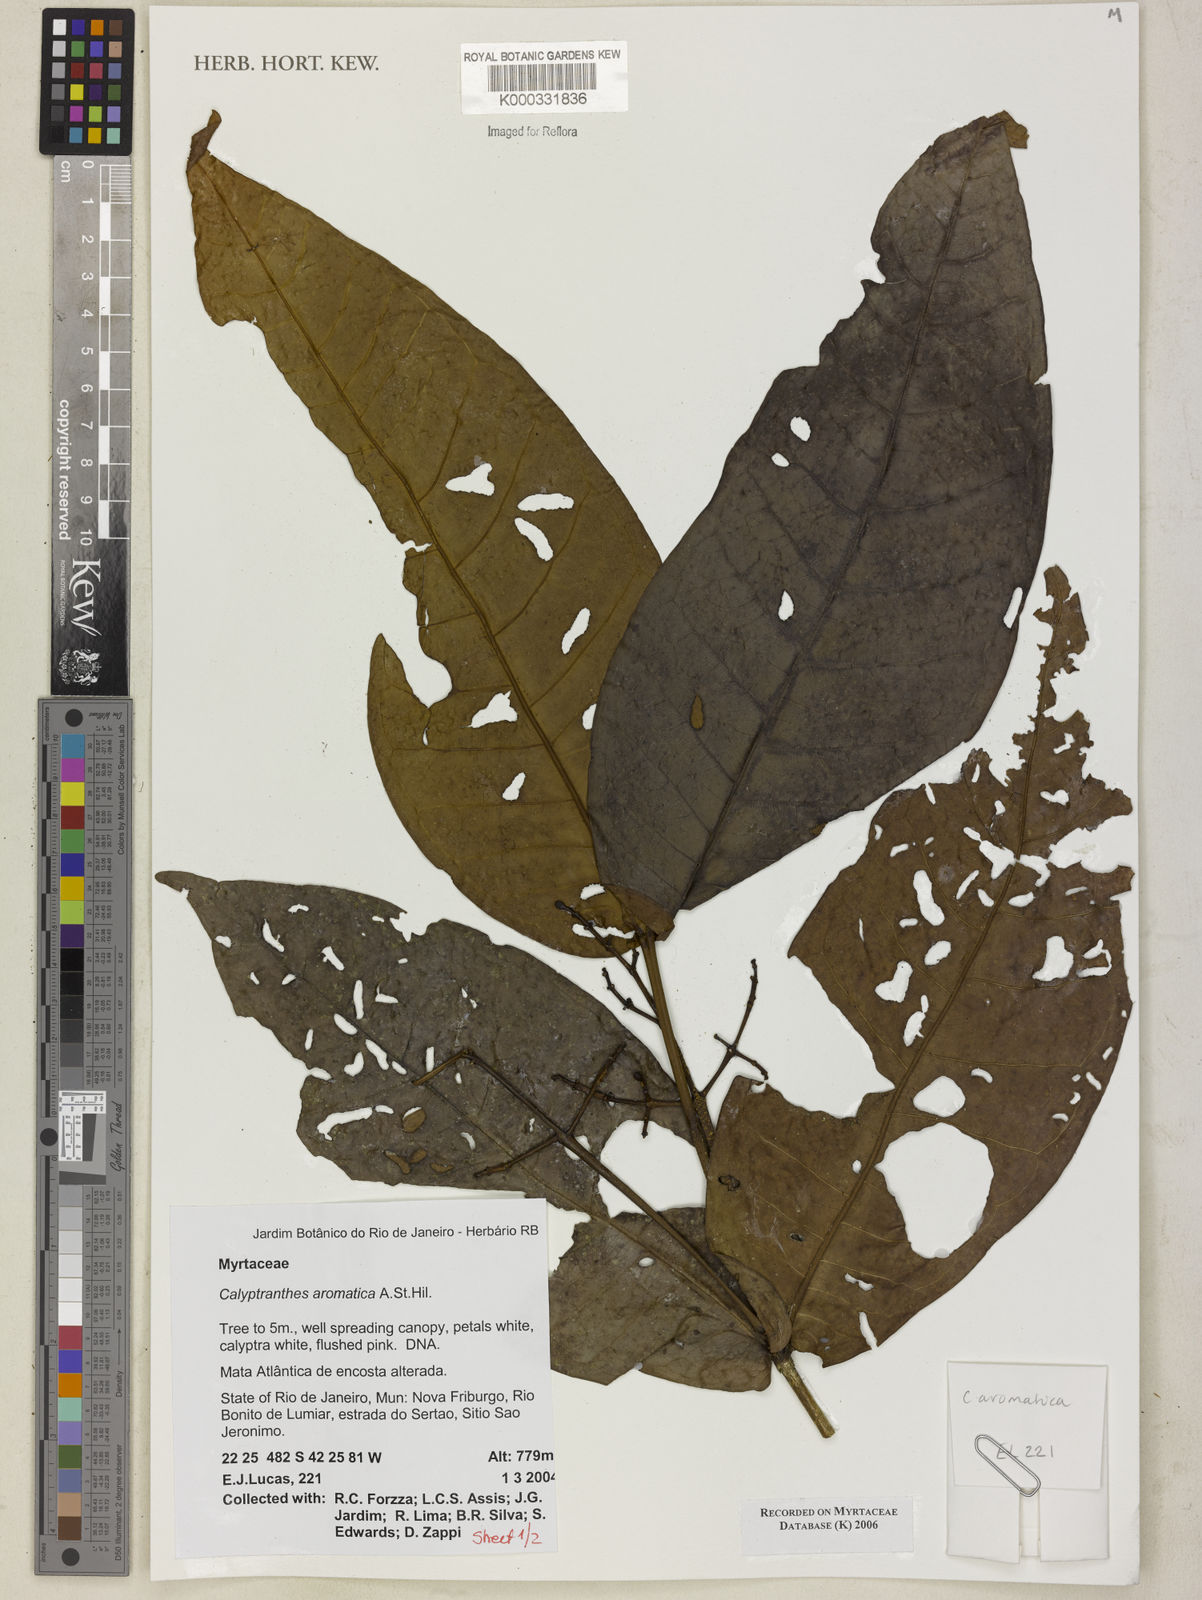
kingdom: Plantae
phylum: Tracheophyta
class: Magnoliopsida
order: Myrtales
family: Myrtaceae
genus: Myrcia
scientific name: Myrcia carioca
